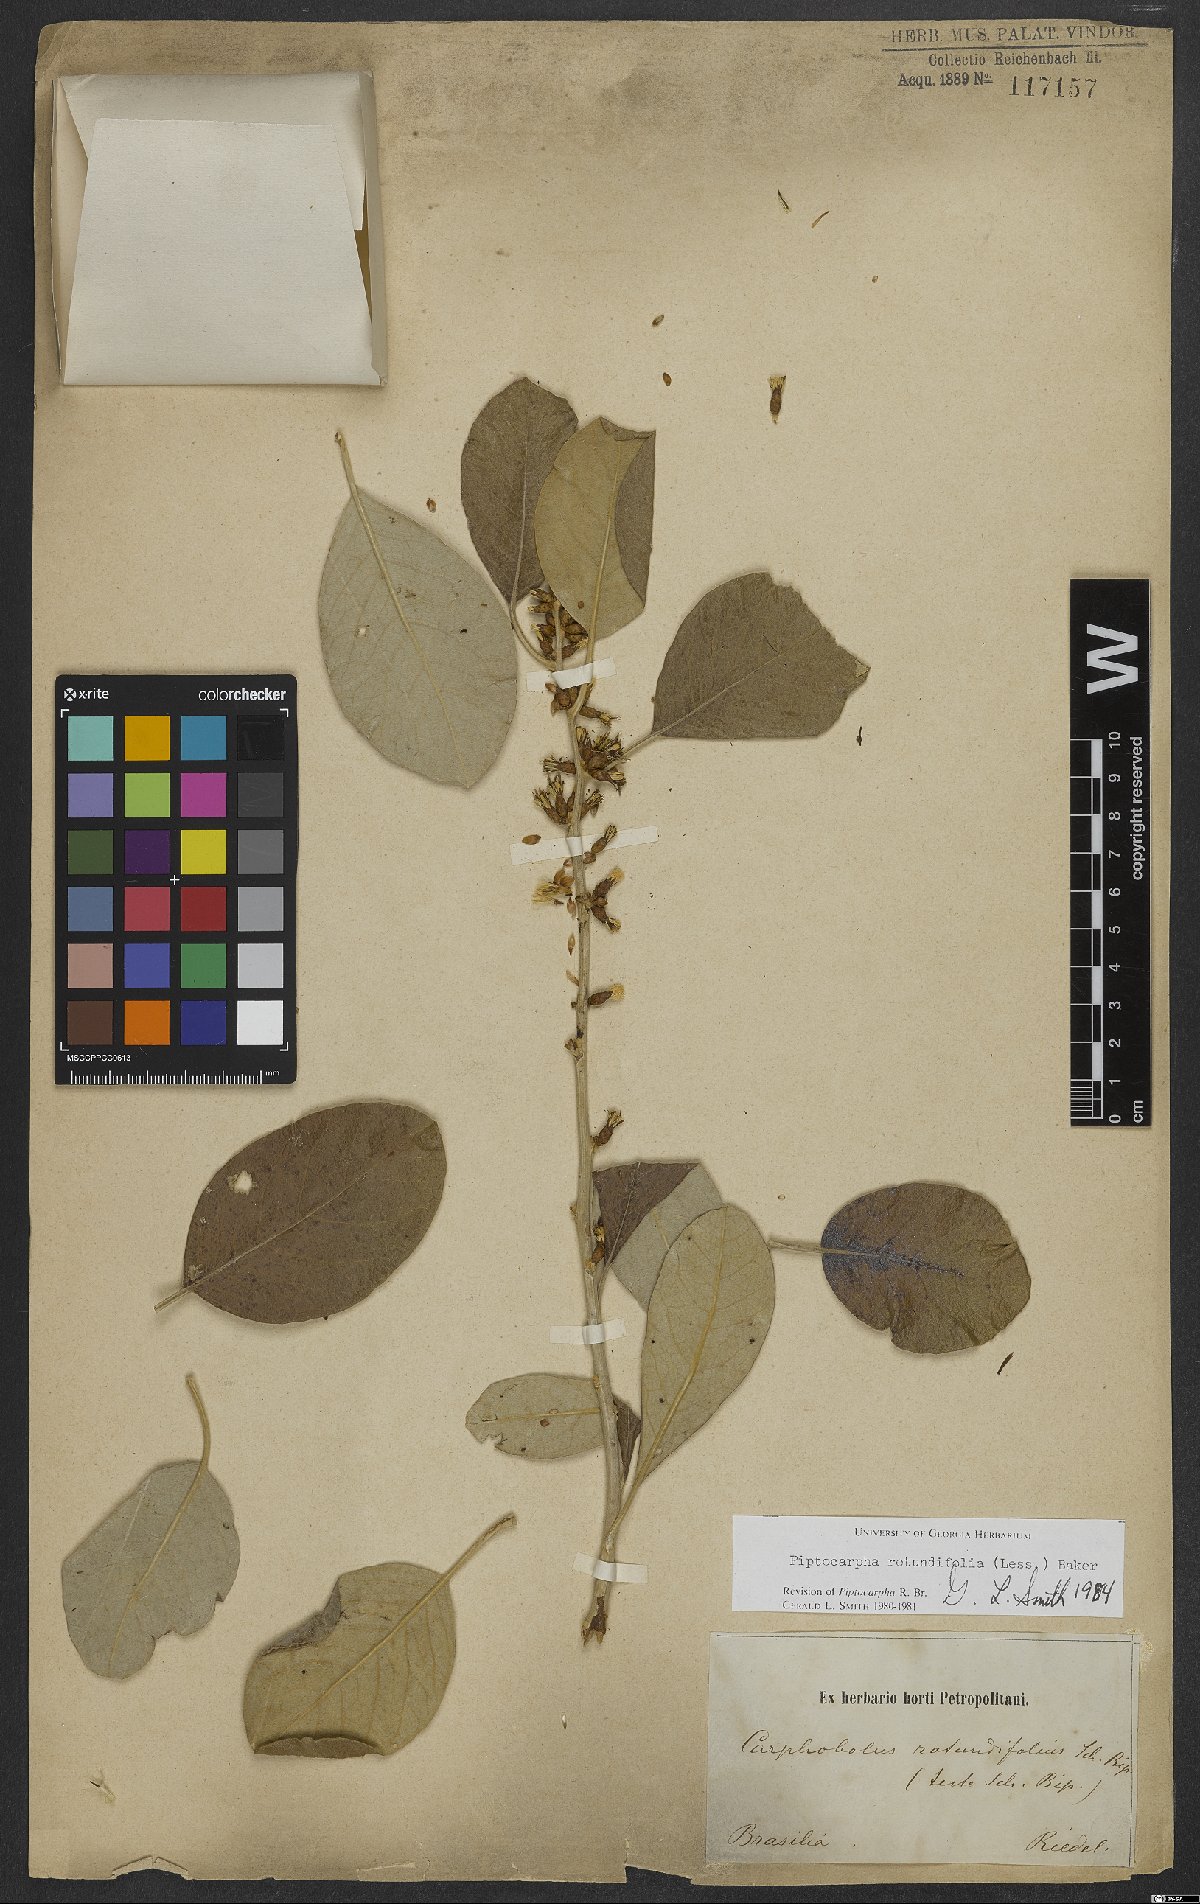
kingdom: Plantae
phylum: Tracheophyta
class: Magnoliopsida
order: Asterales
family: Asteraceae
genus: Piptocarpha
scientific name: Piptocarpha rotundifolia
